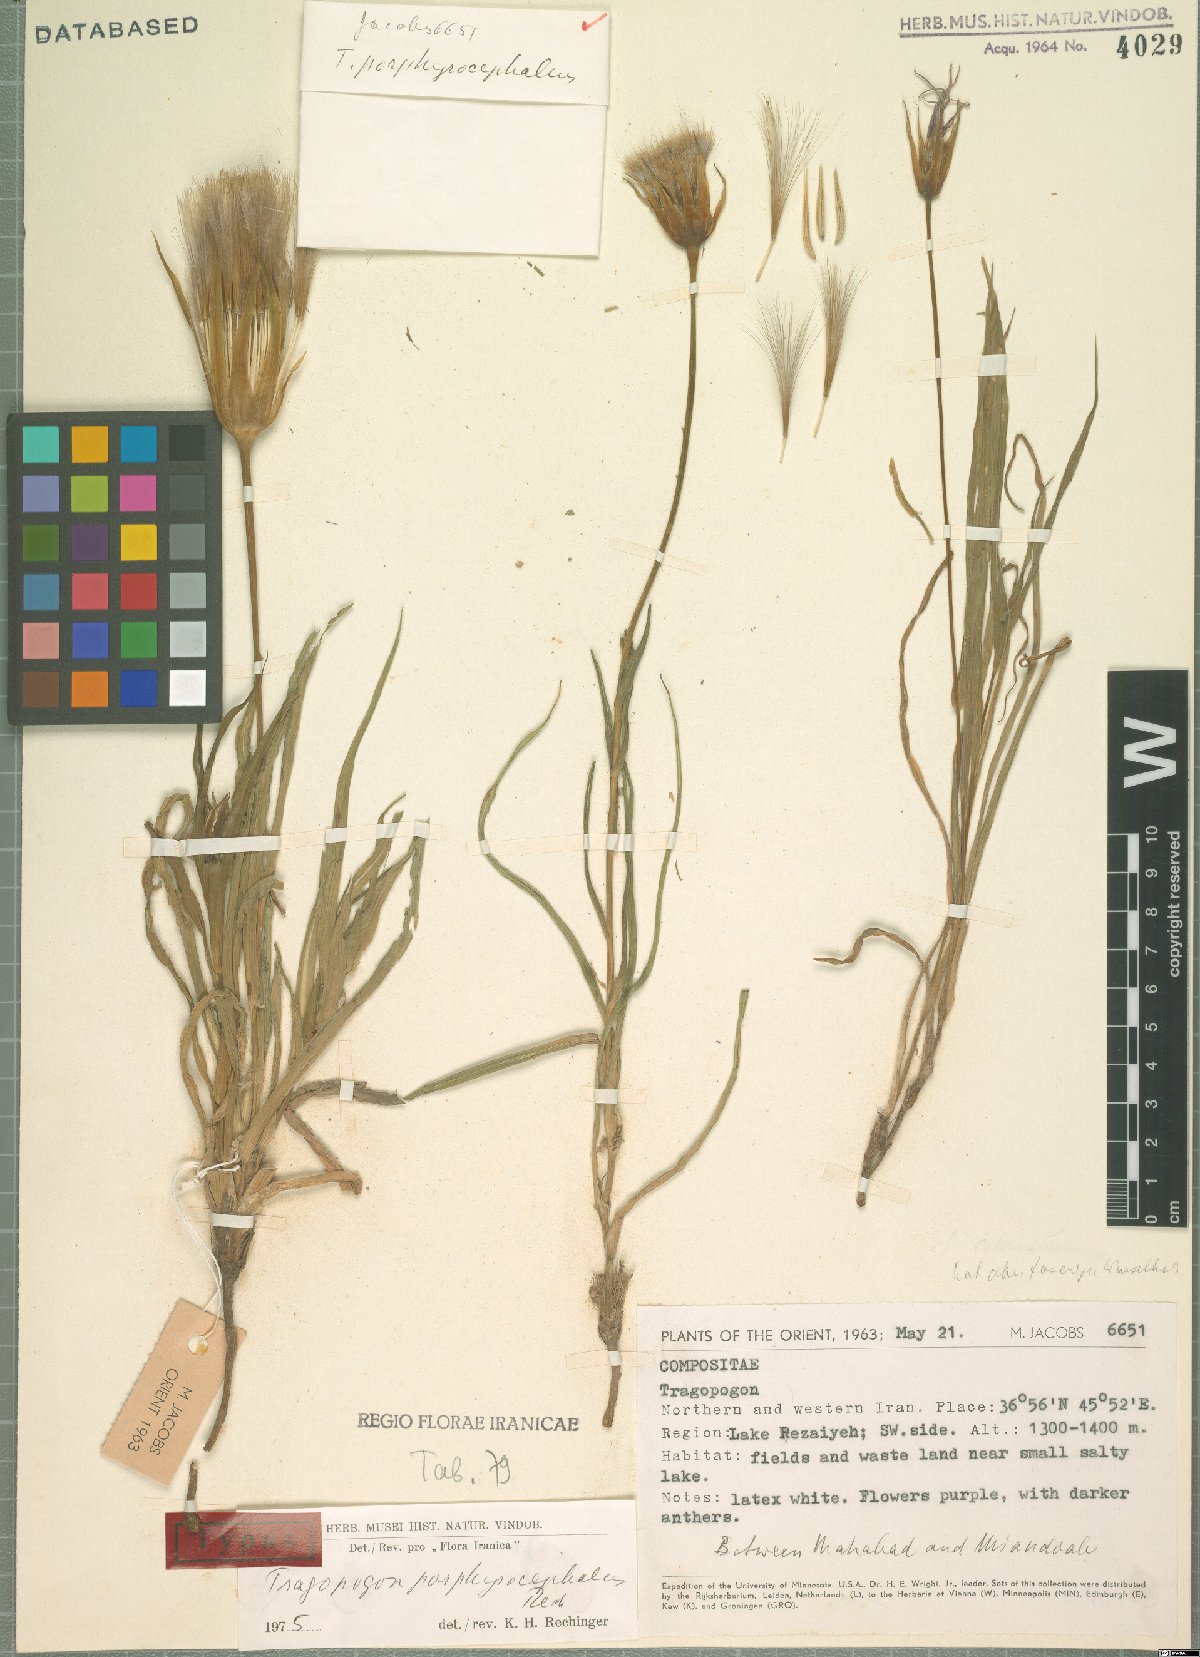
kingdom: Plantae
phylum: Tracheophyta
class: Magnoliopsida
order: Asterales
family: Asteraceae
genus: Tragopogon
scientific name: Tragopogon porphyrocephalus
